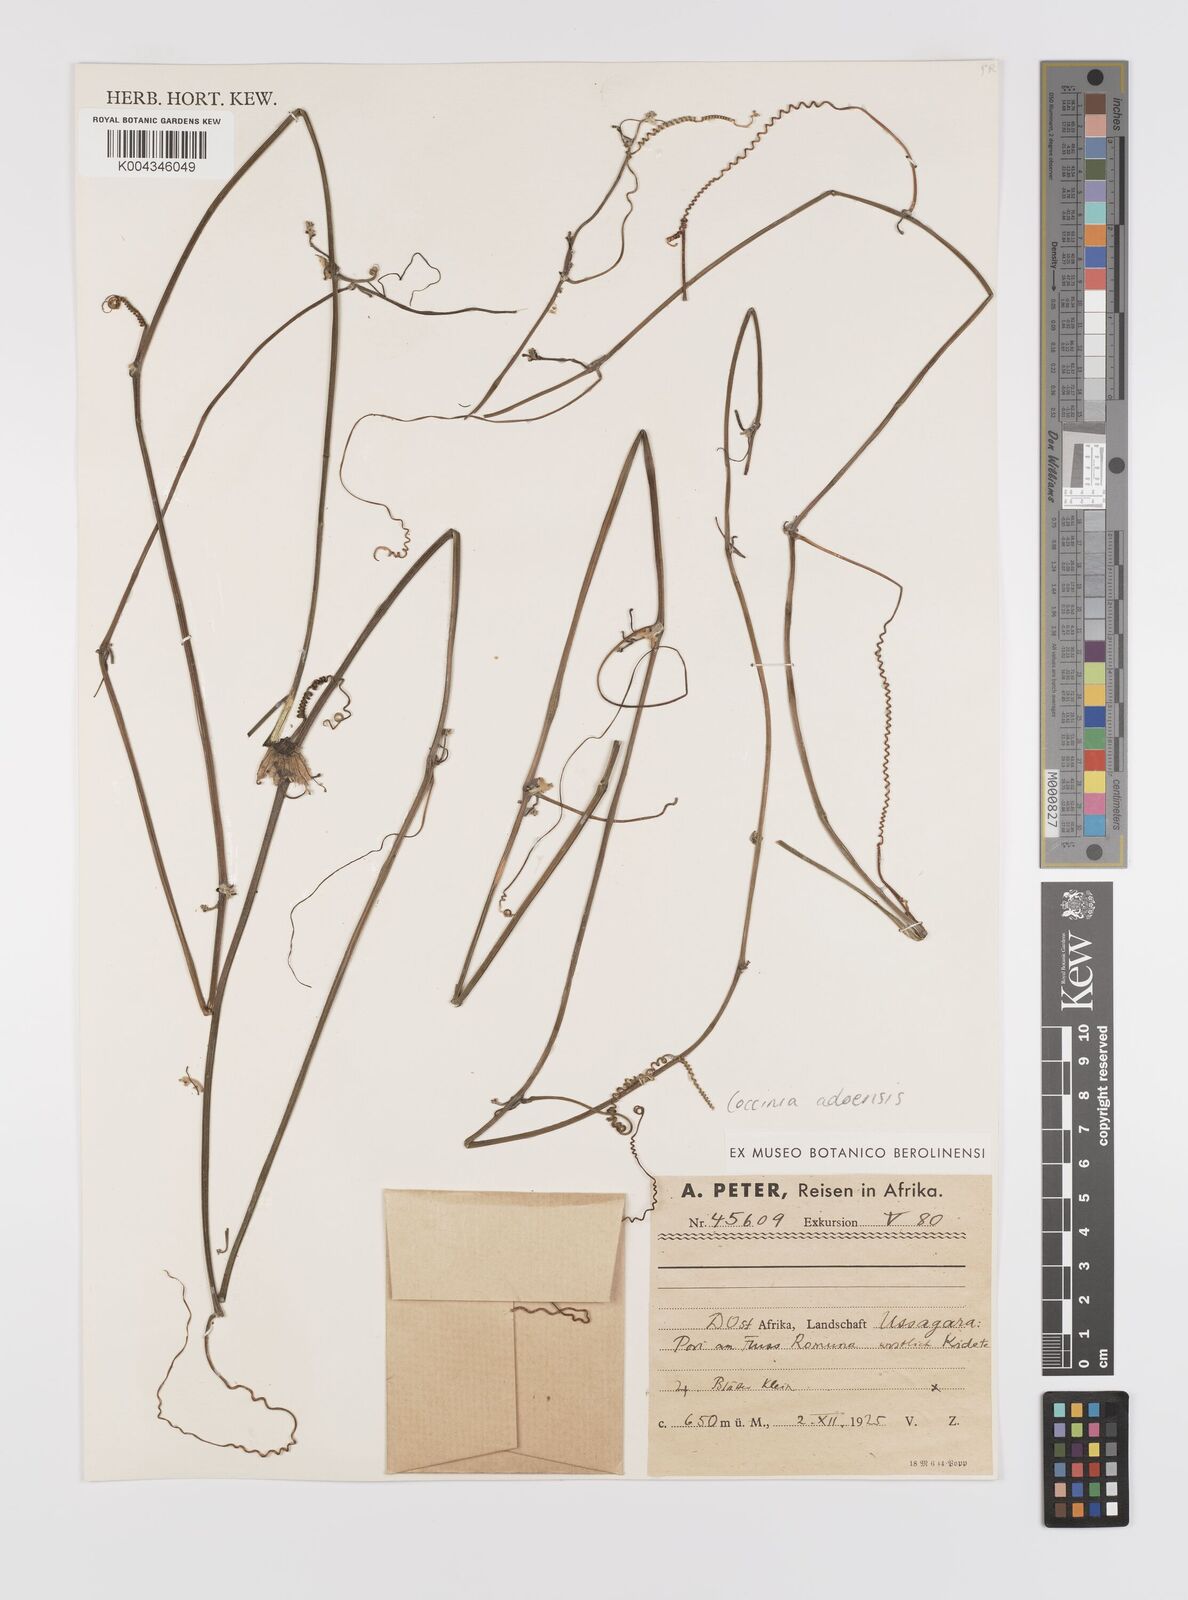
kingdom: Plantae
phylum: Tracheophyta
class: Magnoliopsida
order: Cucurbitales
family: Cucurbitaceae
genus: Coccinia
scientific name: Coccinia adoensis
